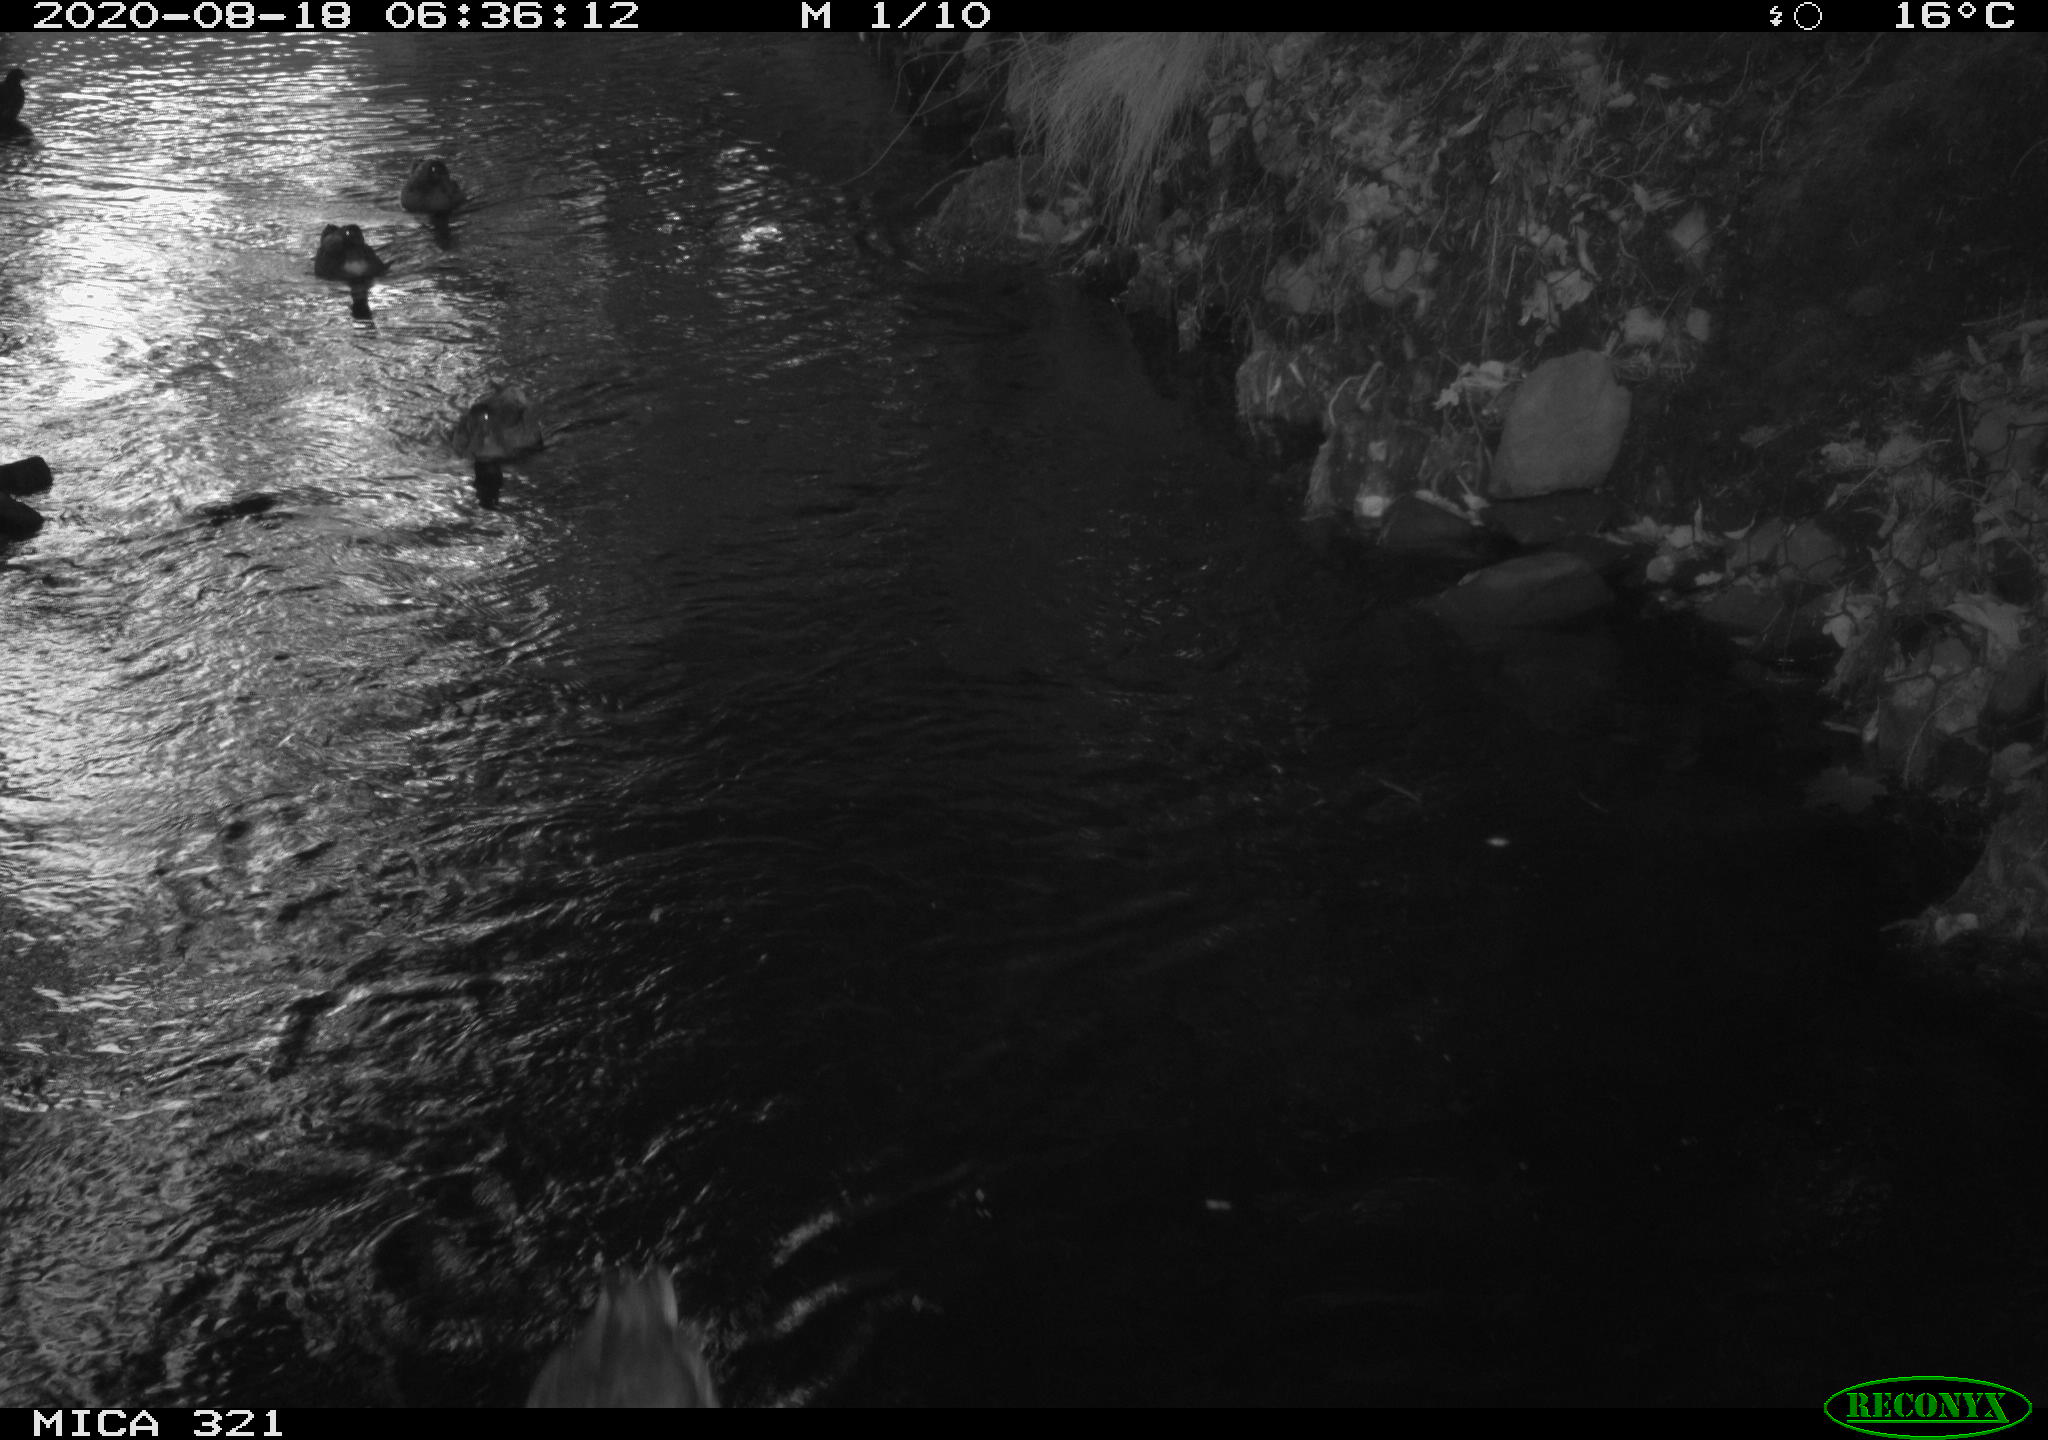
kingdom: Animalia
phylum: Chordata
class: Aves
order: Anseriformes
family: Anatidae
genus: Anas
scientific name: Anas platyrhynchos
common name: Mallard
